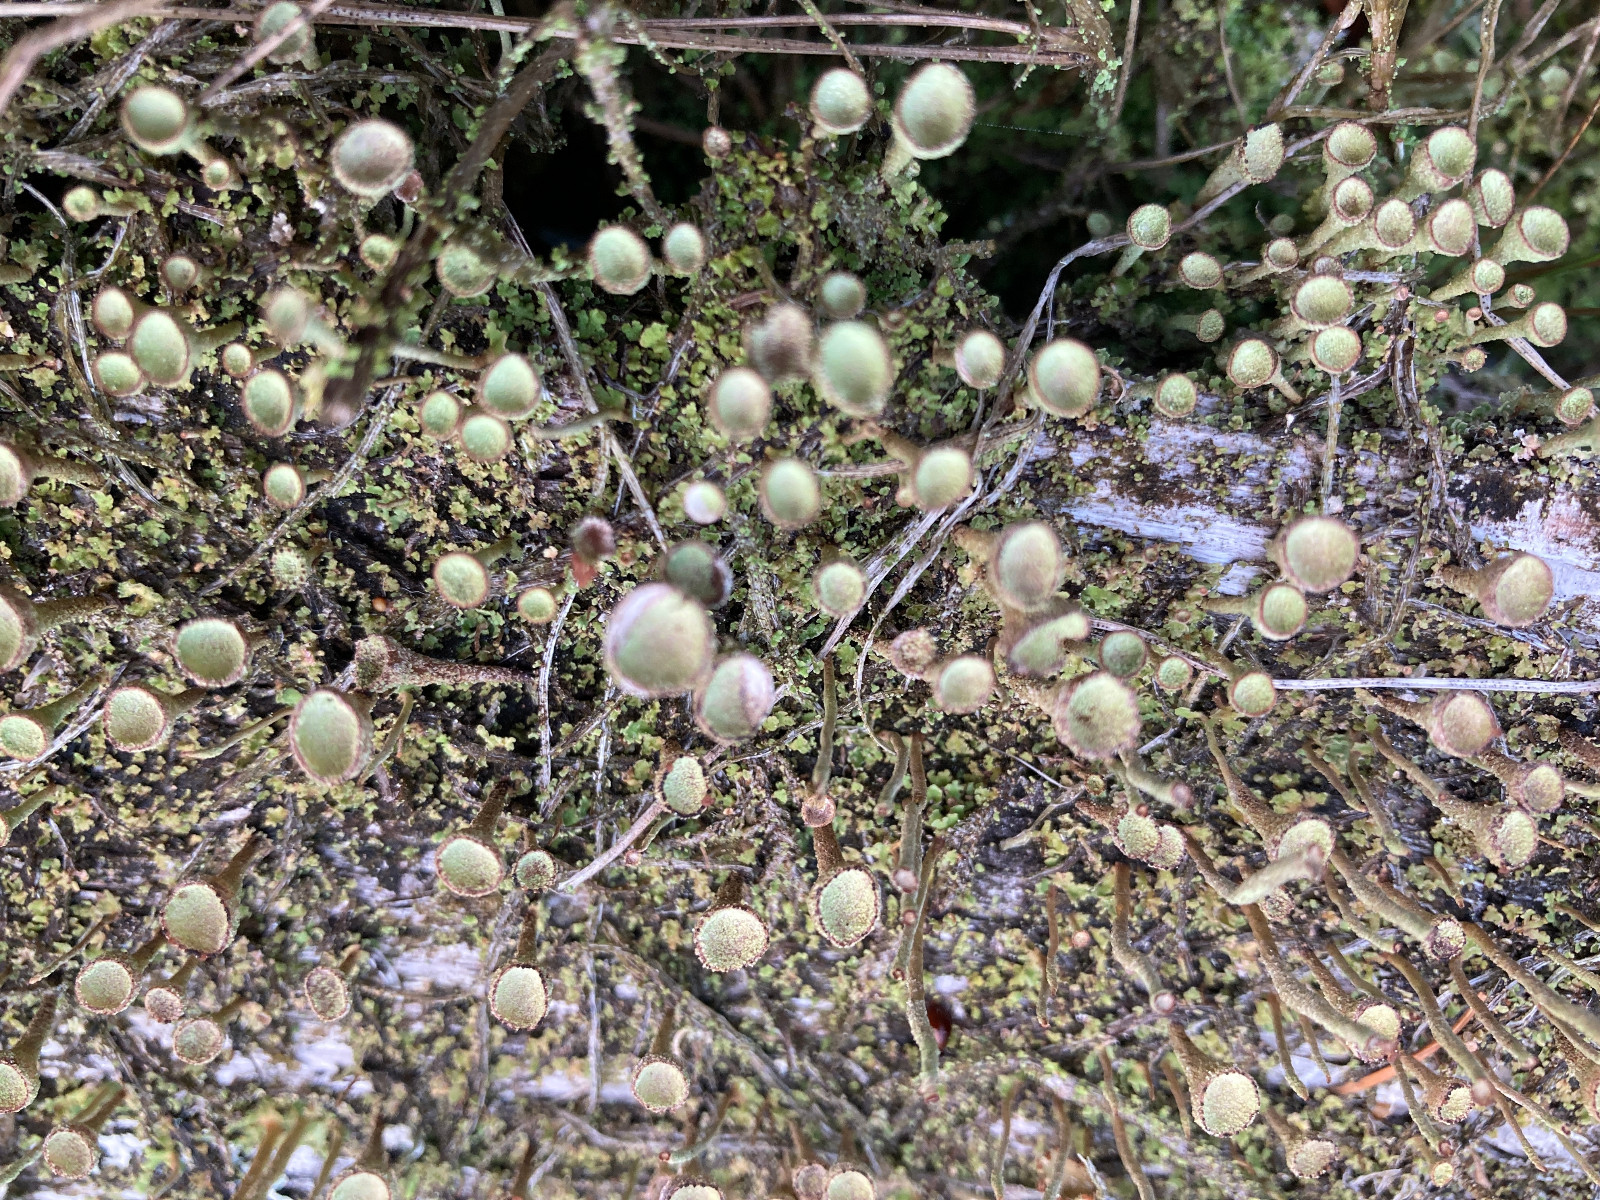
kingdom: Fungi
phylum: Ascomycota
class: Lecanoromycetes
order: Lecanorales
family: Cladoniaceae
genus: Cladonia
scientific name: Cladonia fimbriata
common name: bleggrøn bægerlav
